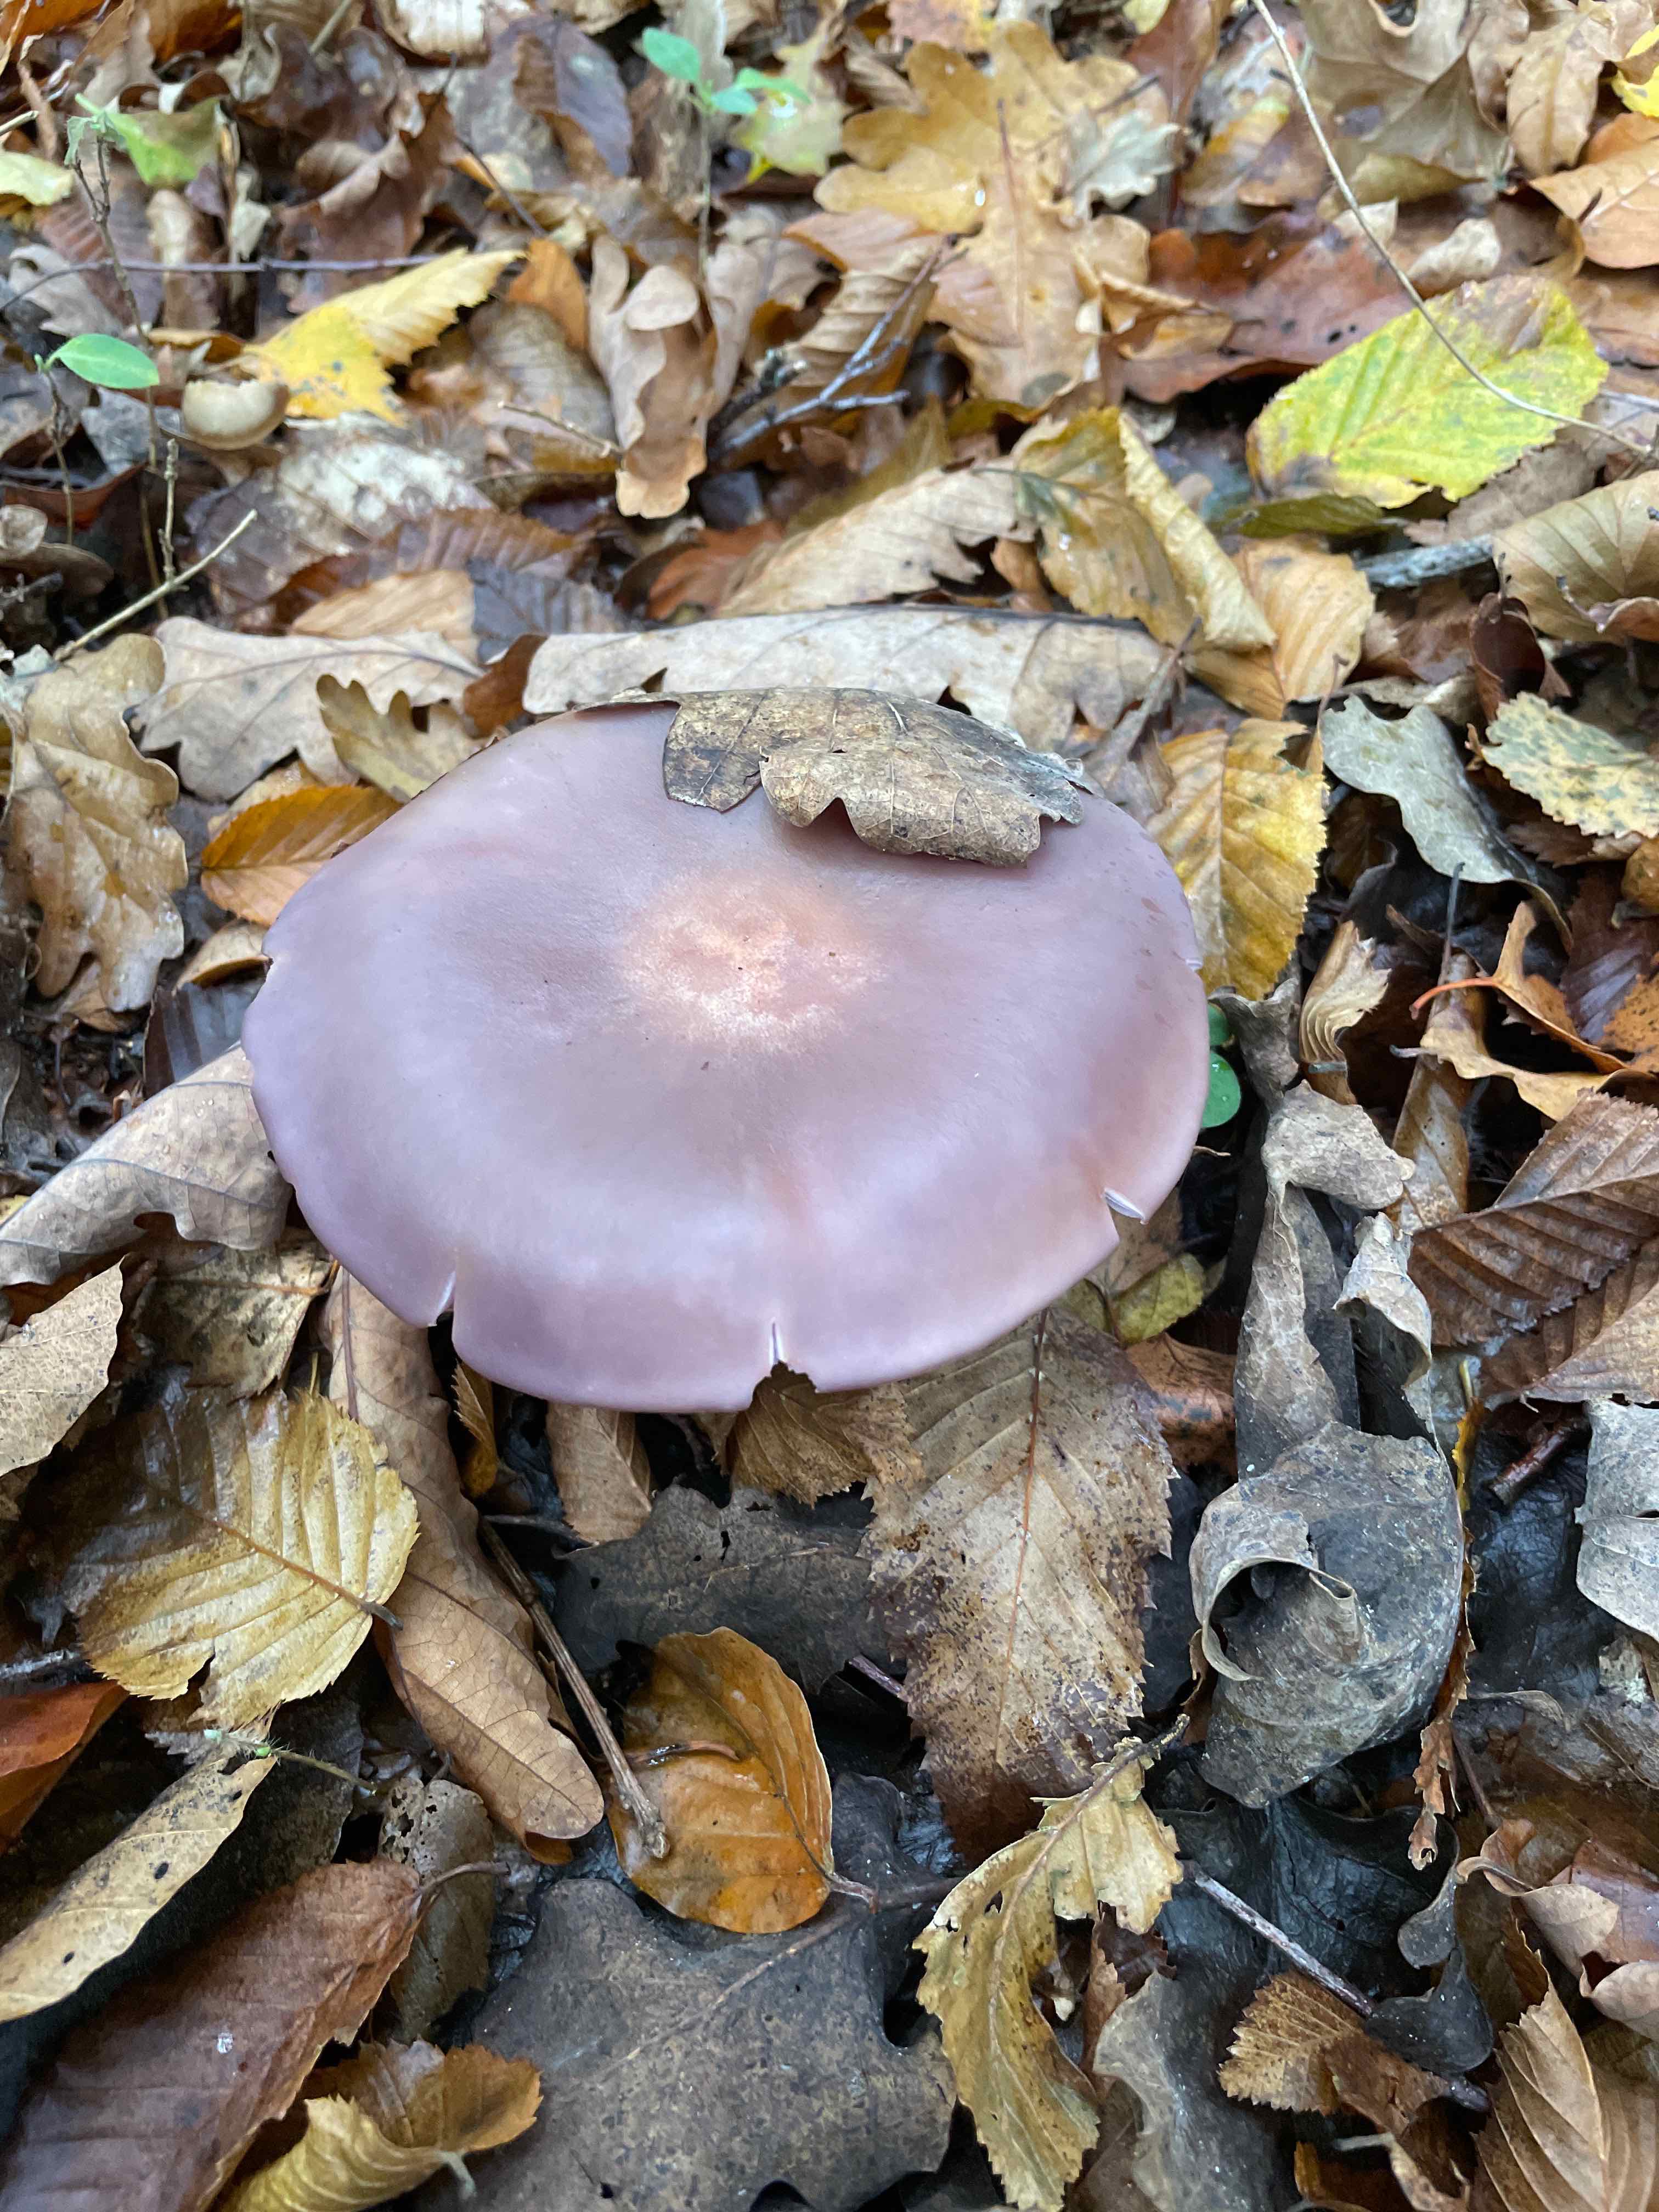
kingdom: Fungi
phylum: Basidiomycota
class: Agaricomycetes
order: Agaricales
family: Tricholomataceae
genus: Lepista
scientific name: Lepista
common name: hekseringshat
